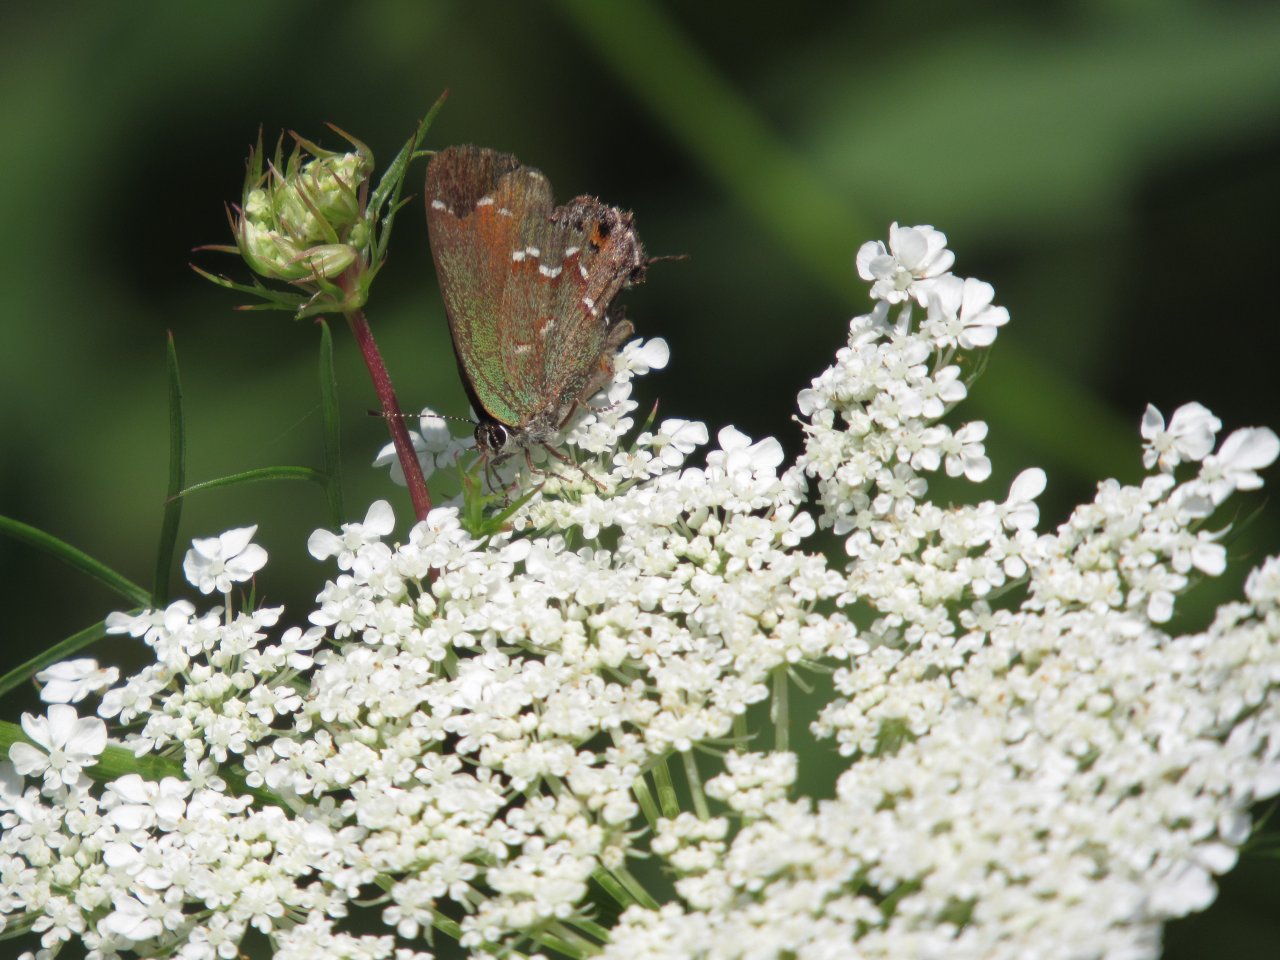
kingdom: Animalia
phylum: Arthropoda
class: Insecta
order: Lepidoptera
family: Lycaenidae
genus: Mitoura
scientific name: Mitoura gryneus
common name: Juniper Hairstreak
